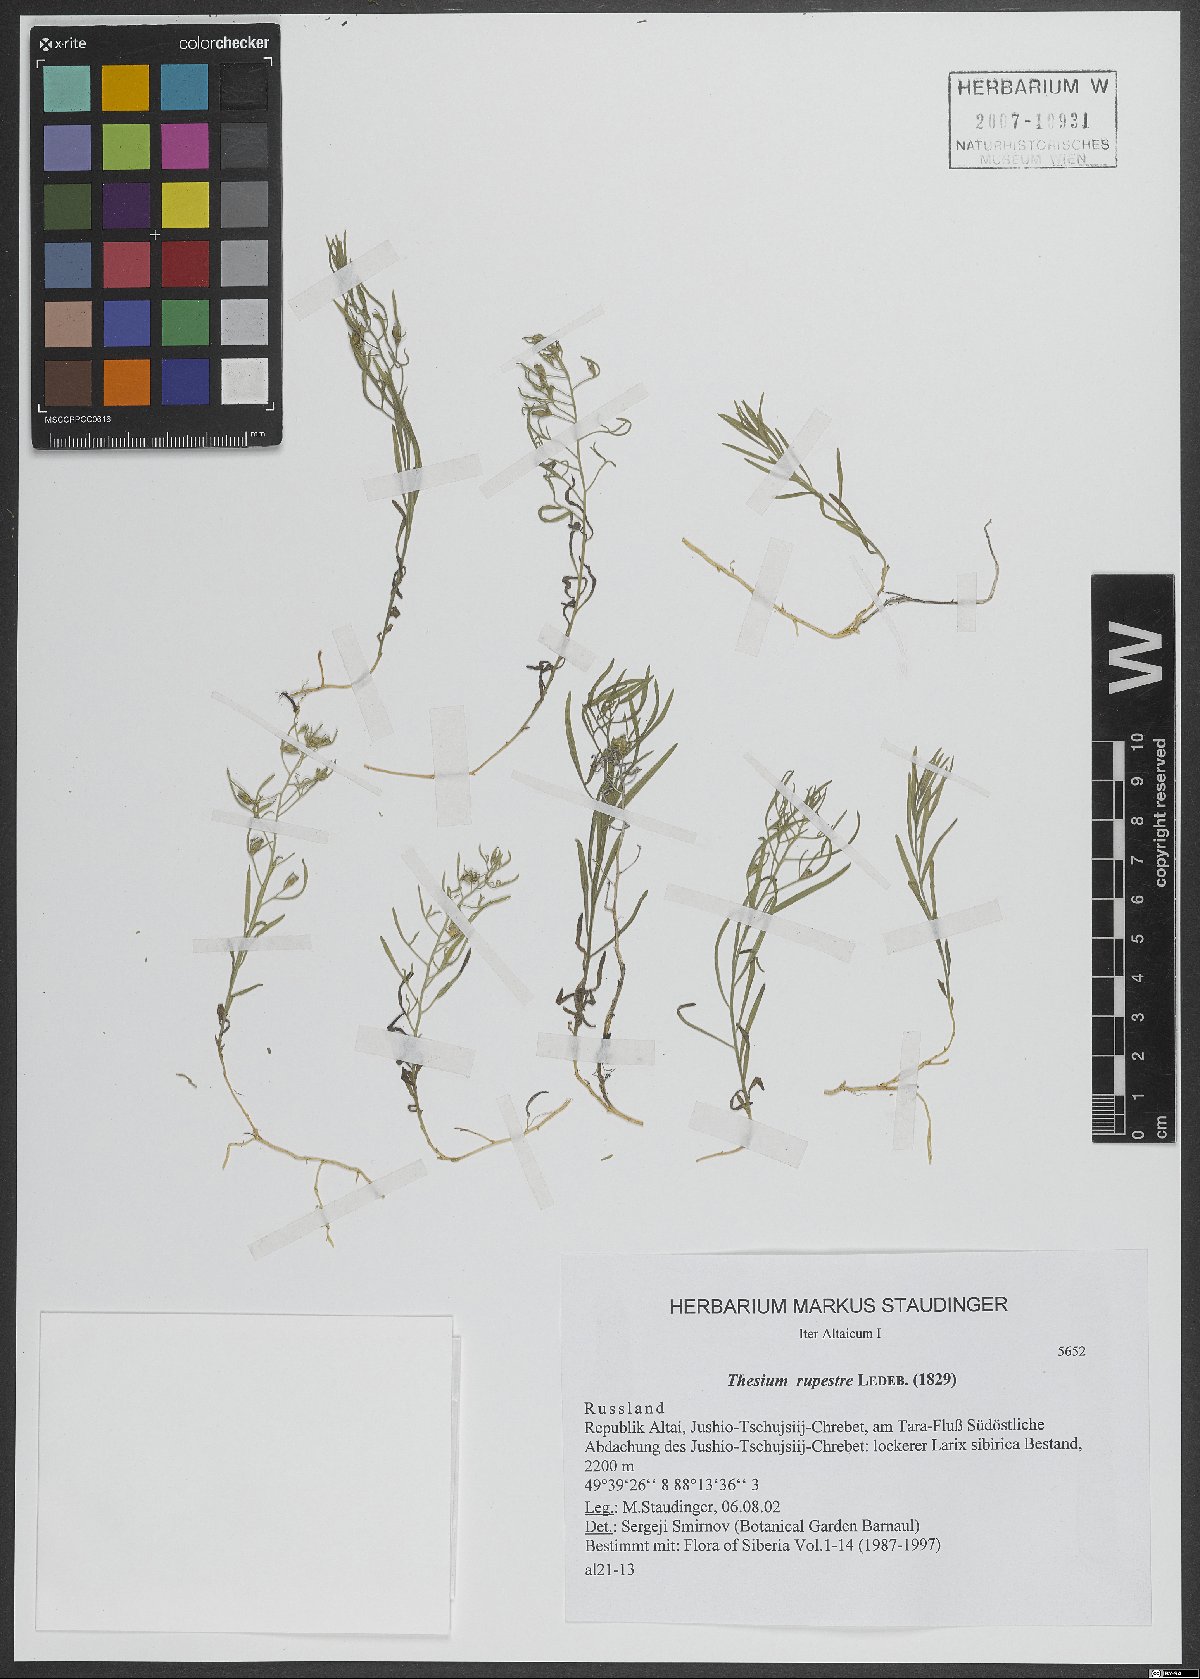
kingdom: Plantae
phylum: Tracheophyta
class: Magnoliopsida
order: Santalales
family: Thesiaceae
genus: Thesium
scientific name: Thesium rupestre
